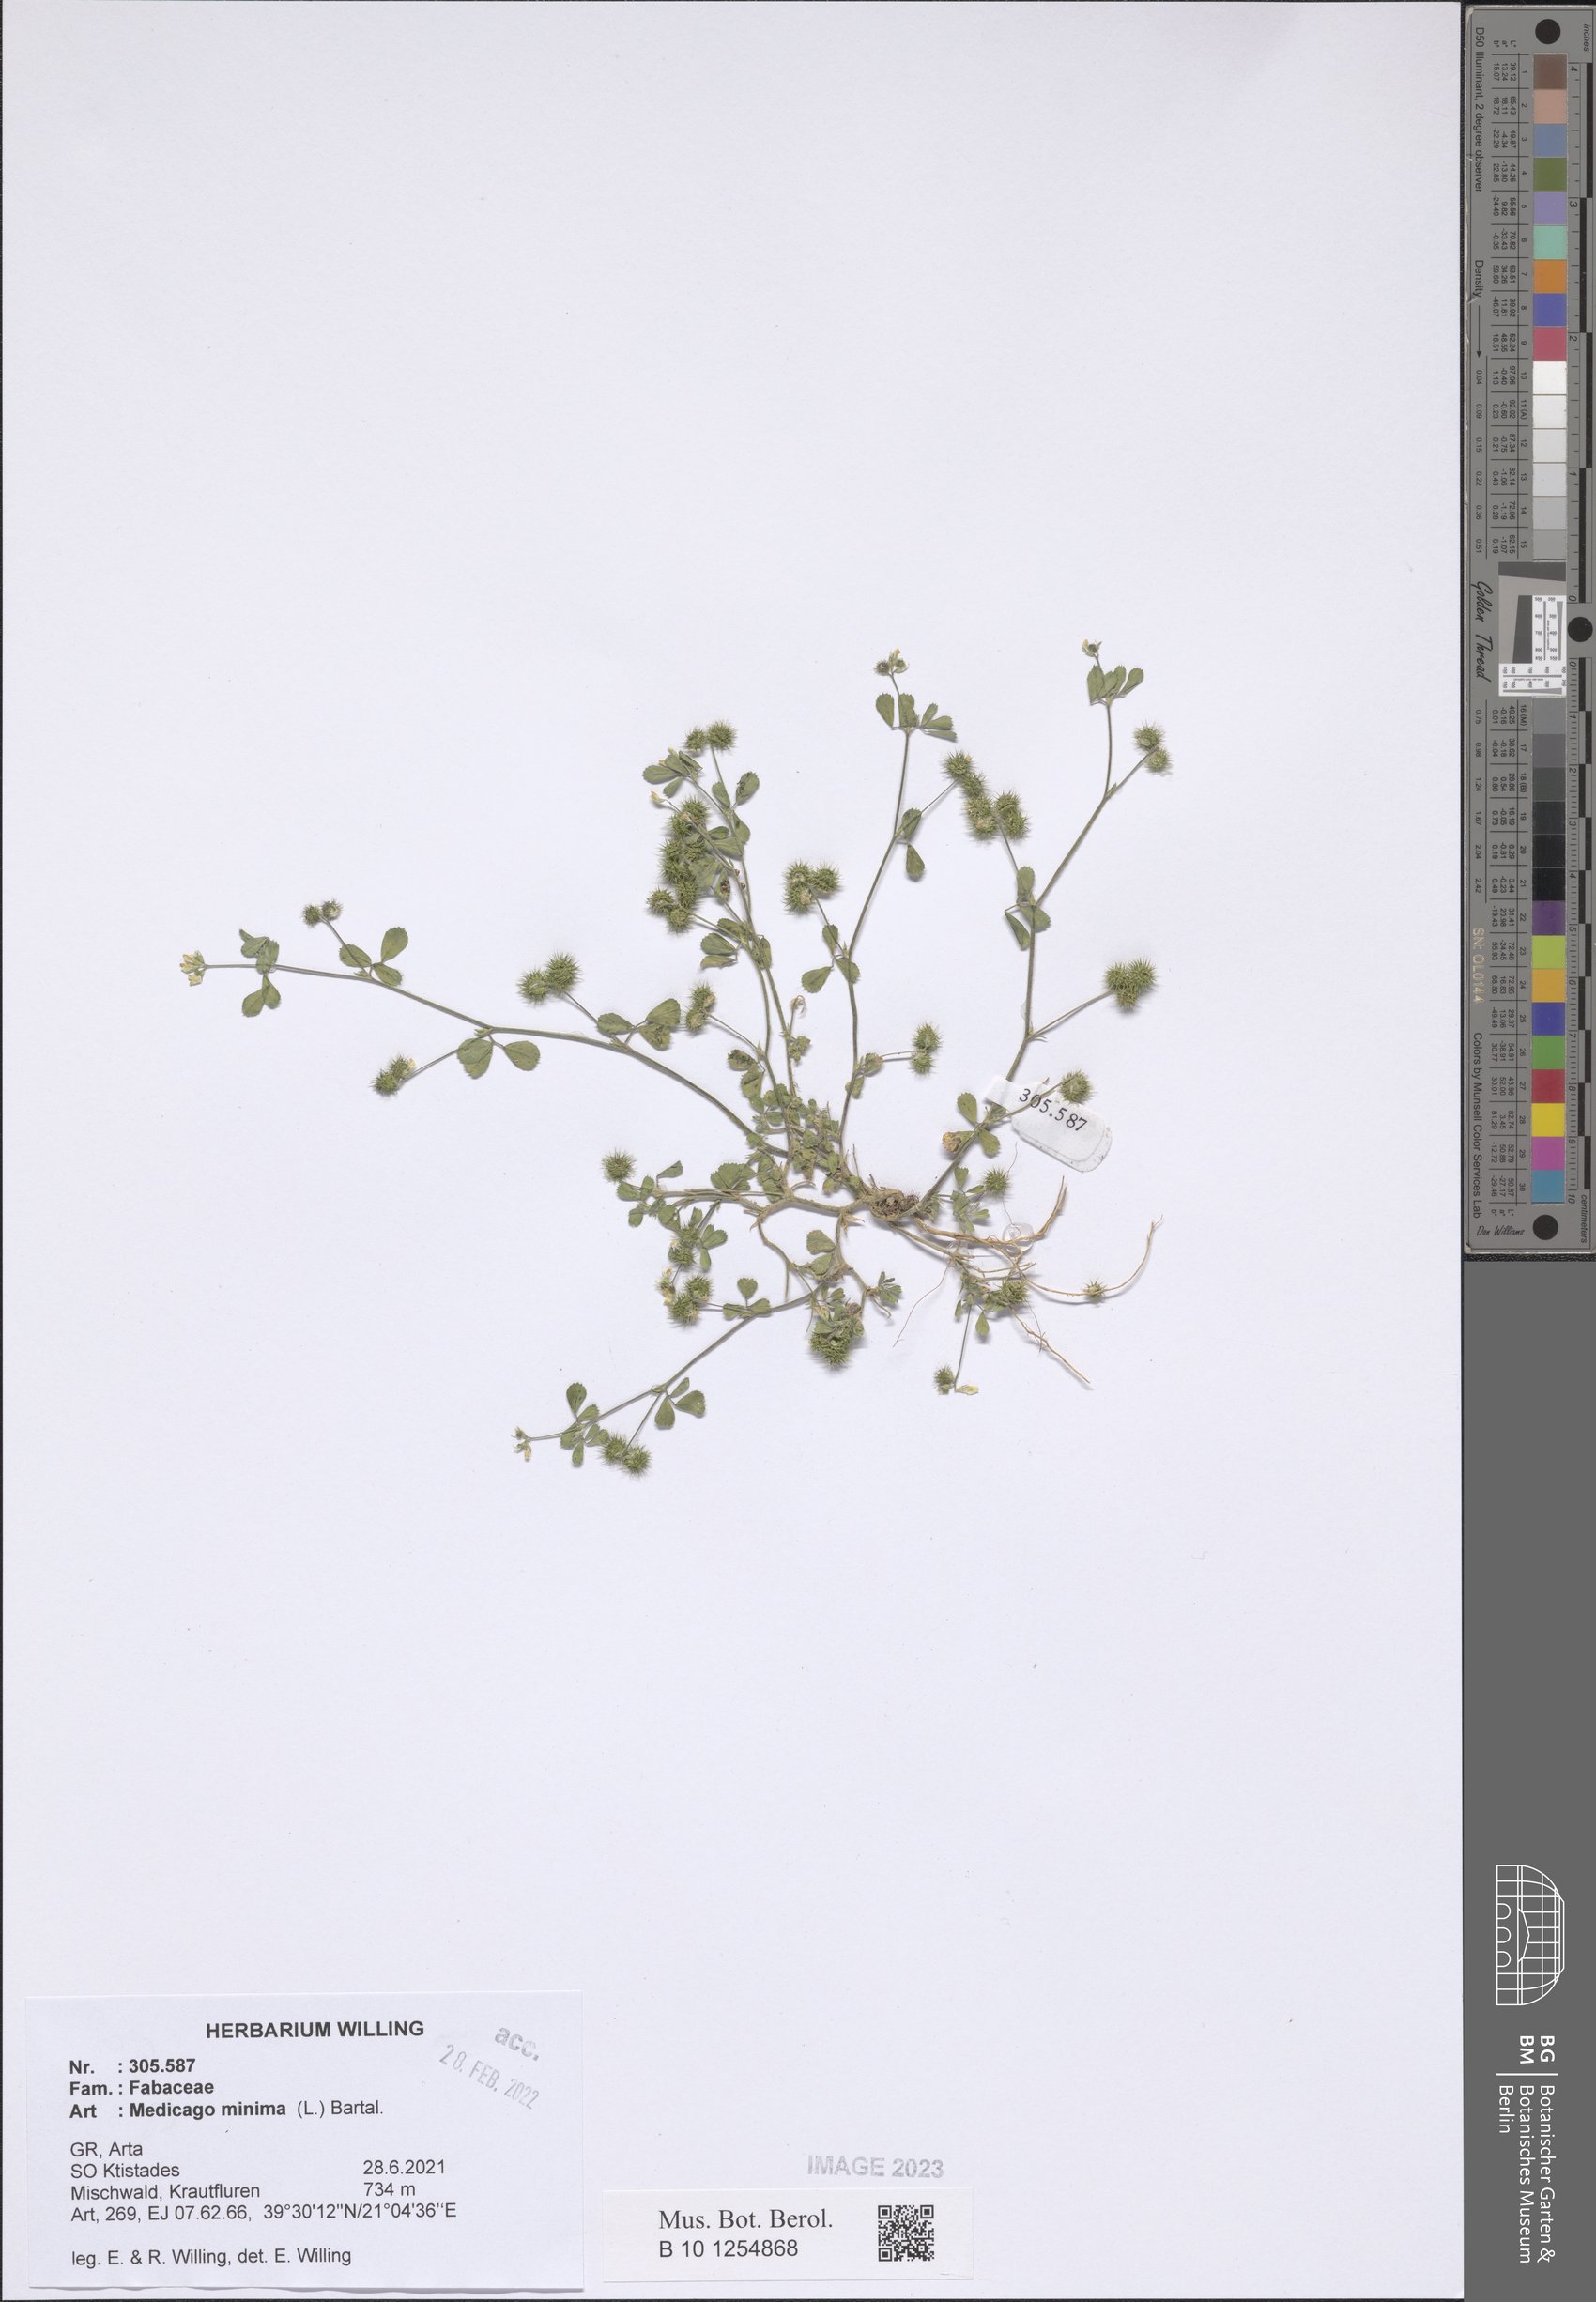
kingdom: Plantae
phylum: Tracheophyta
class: Magnoliopsida
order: Fabales
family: Fabaceae
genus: Medicago
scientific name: Medicago minima
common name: Little bur-clover
